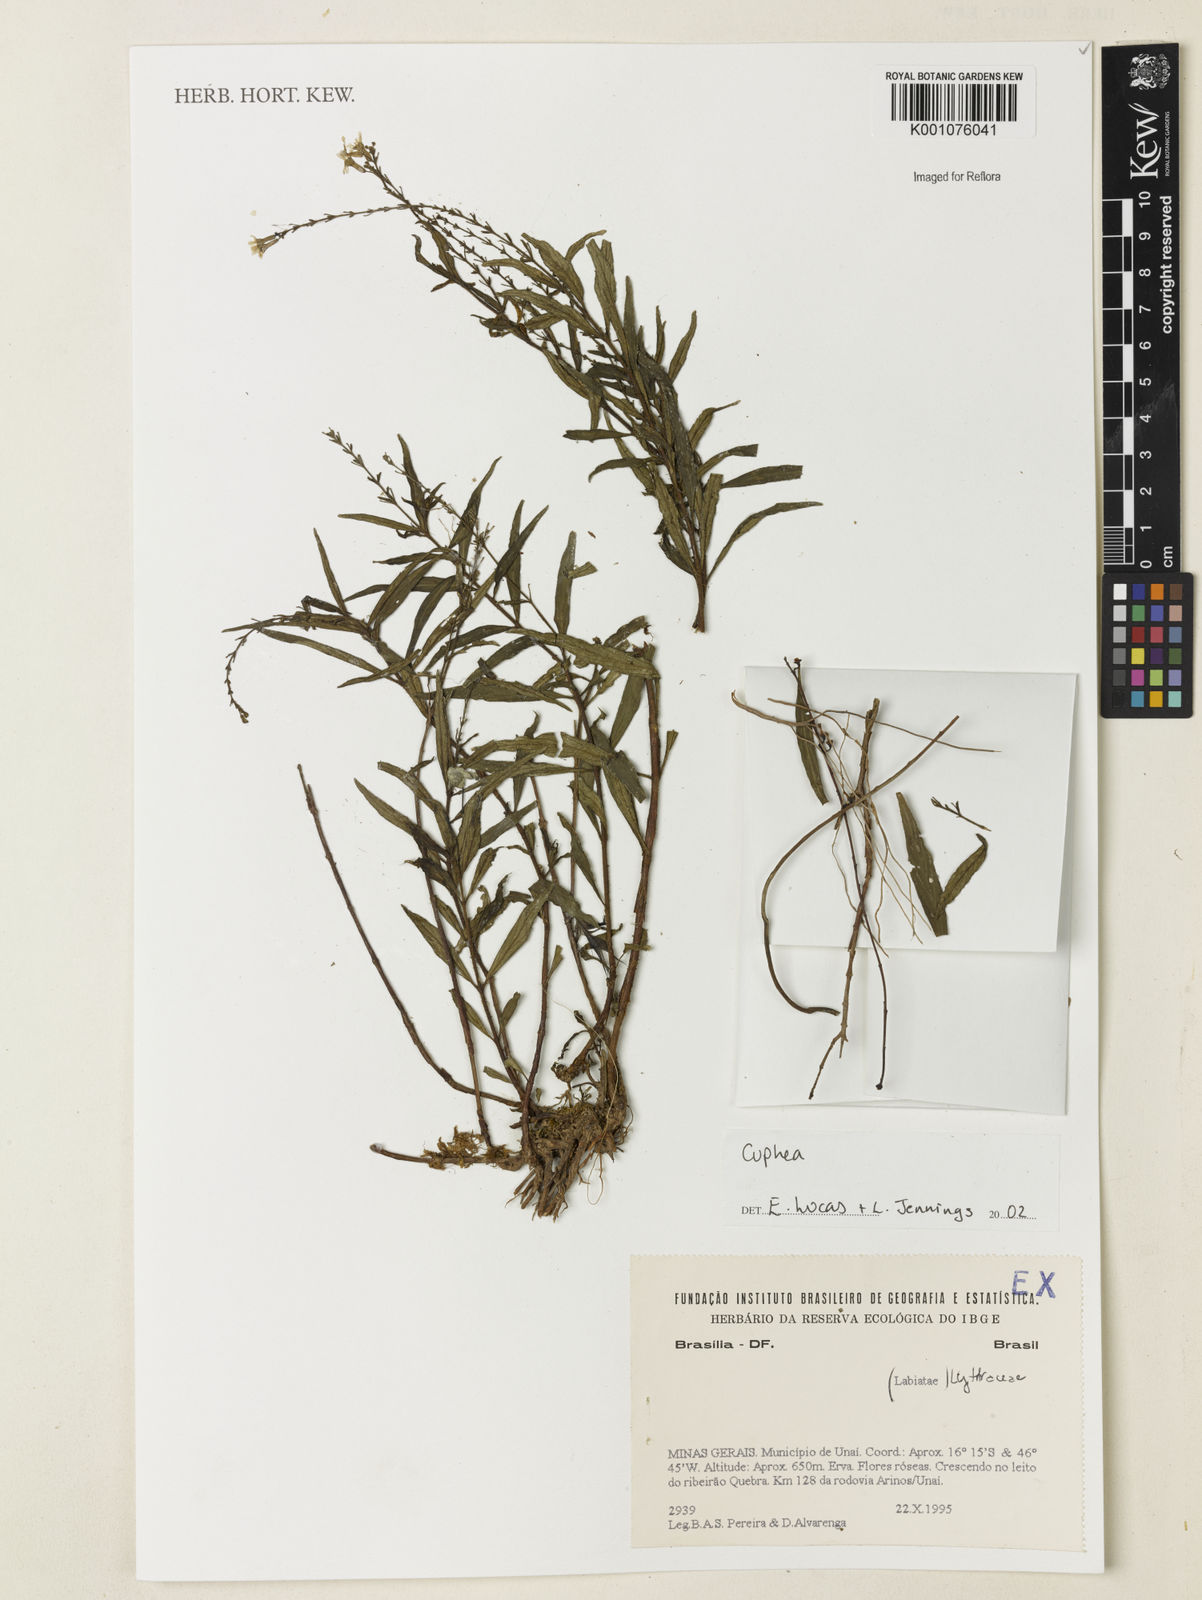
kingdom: Plantae
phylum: Tracheophyta
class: Magnoliopsida
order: Myrtales
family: Lythraceae
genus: Cuphea
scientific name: Cuphea
